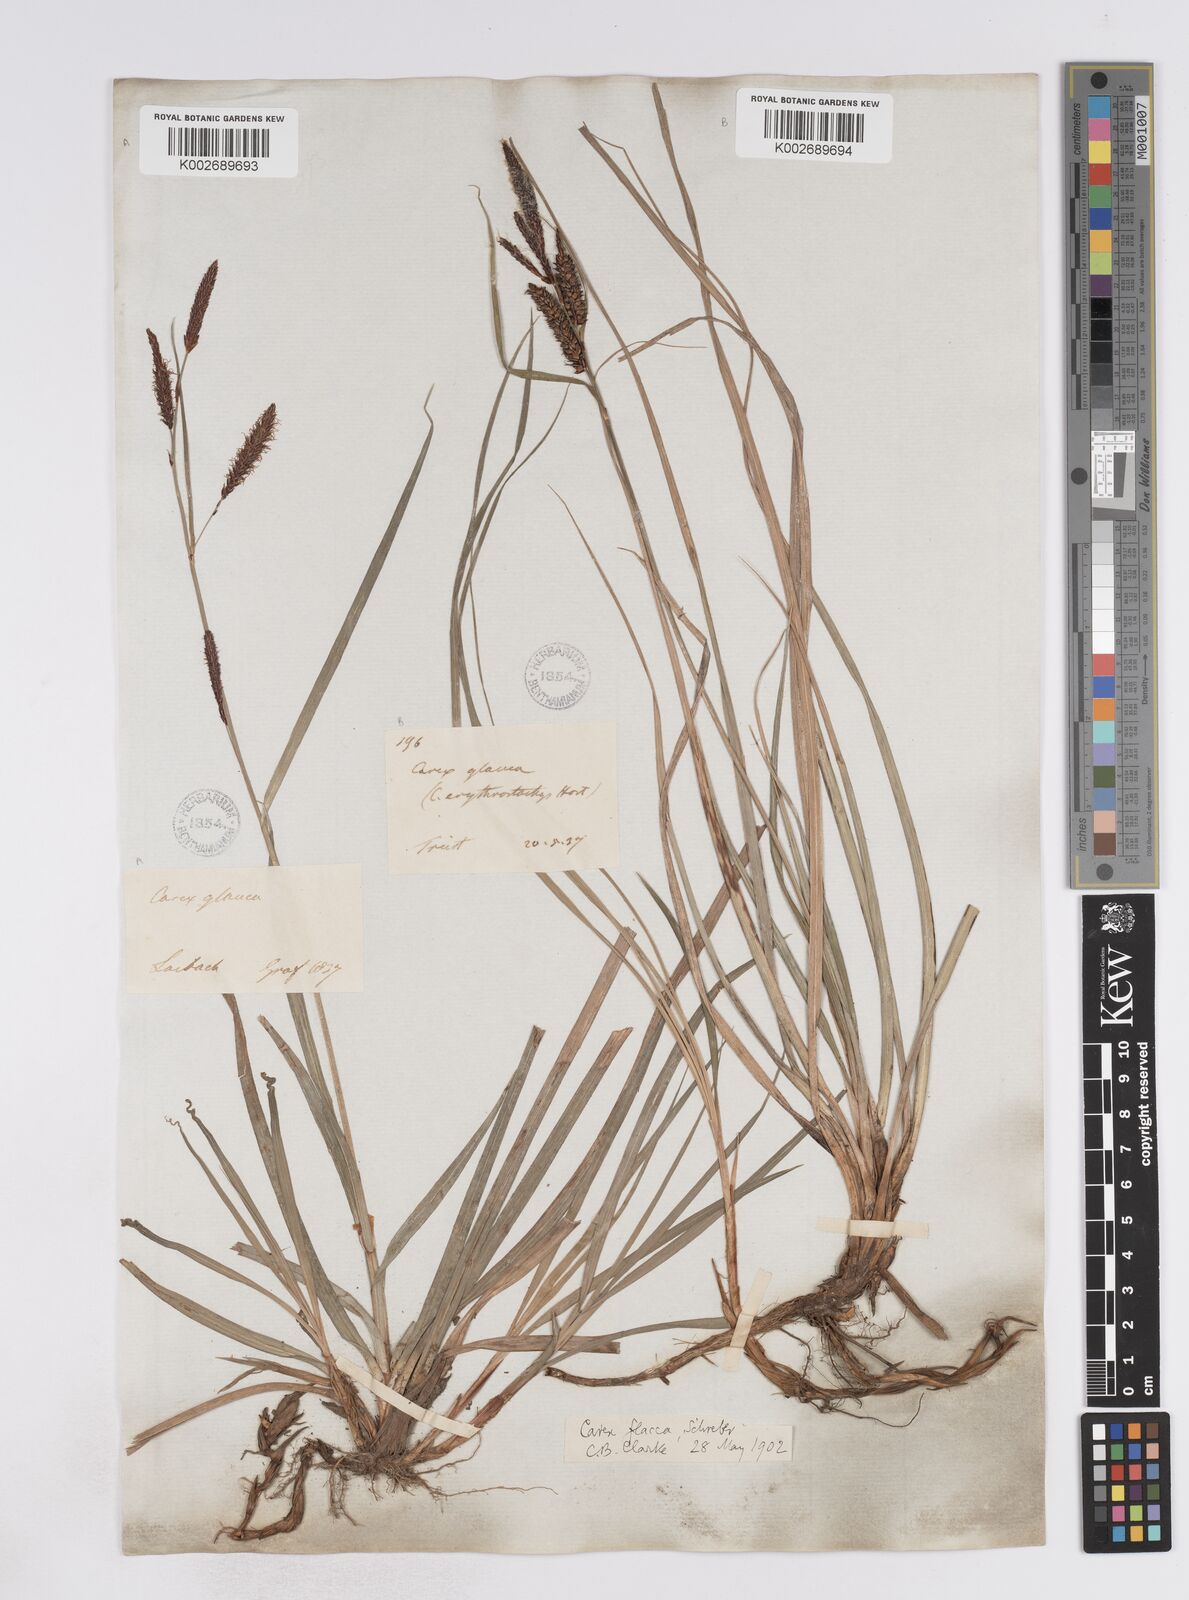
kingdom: Plantae
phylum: Tracheophyta
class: Liliopsida
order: Poales
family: Cyperaceae
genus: Carex
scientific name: Carex flacca
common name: Glaucous sedge
